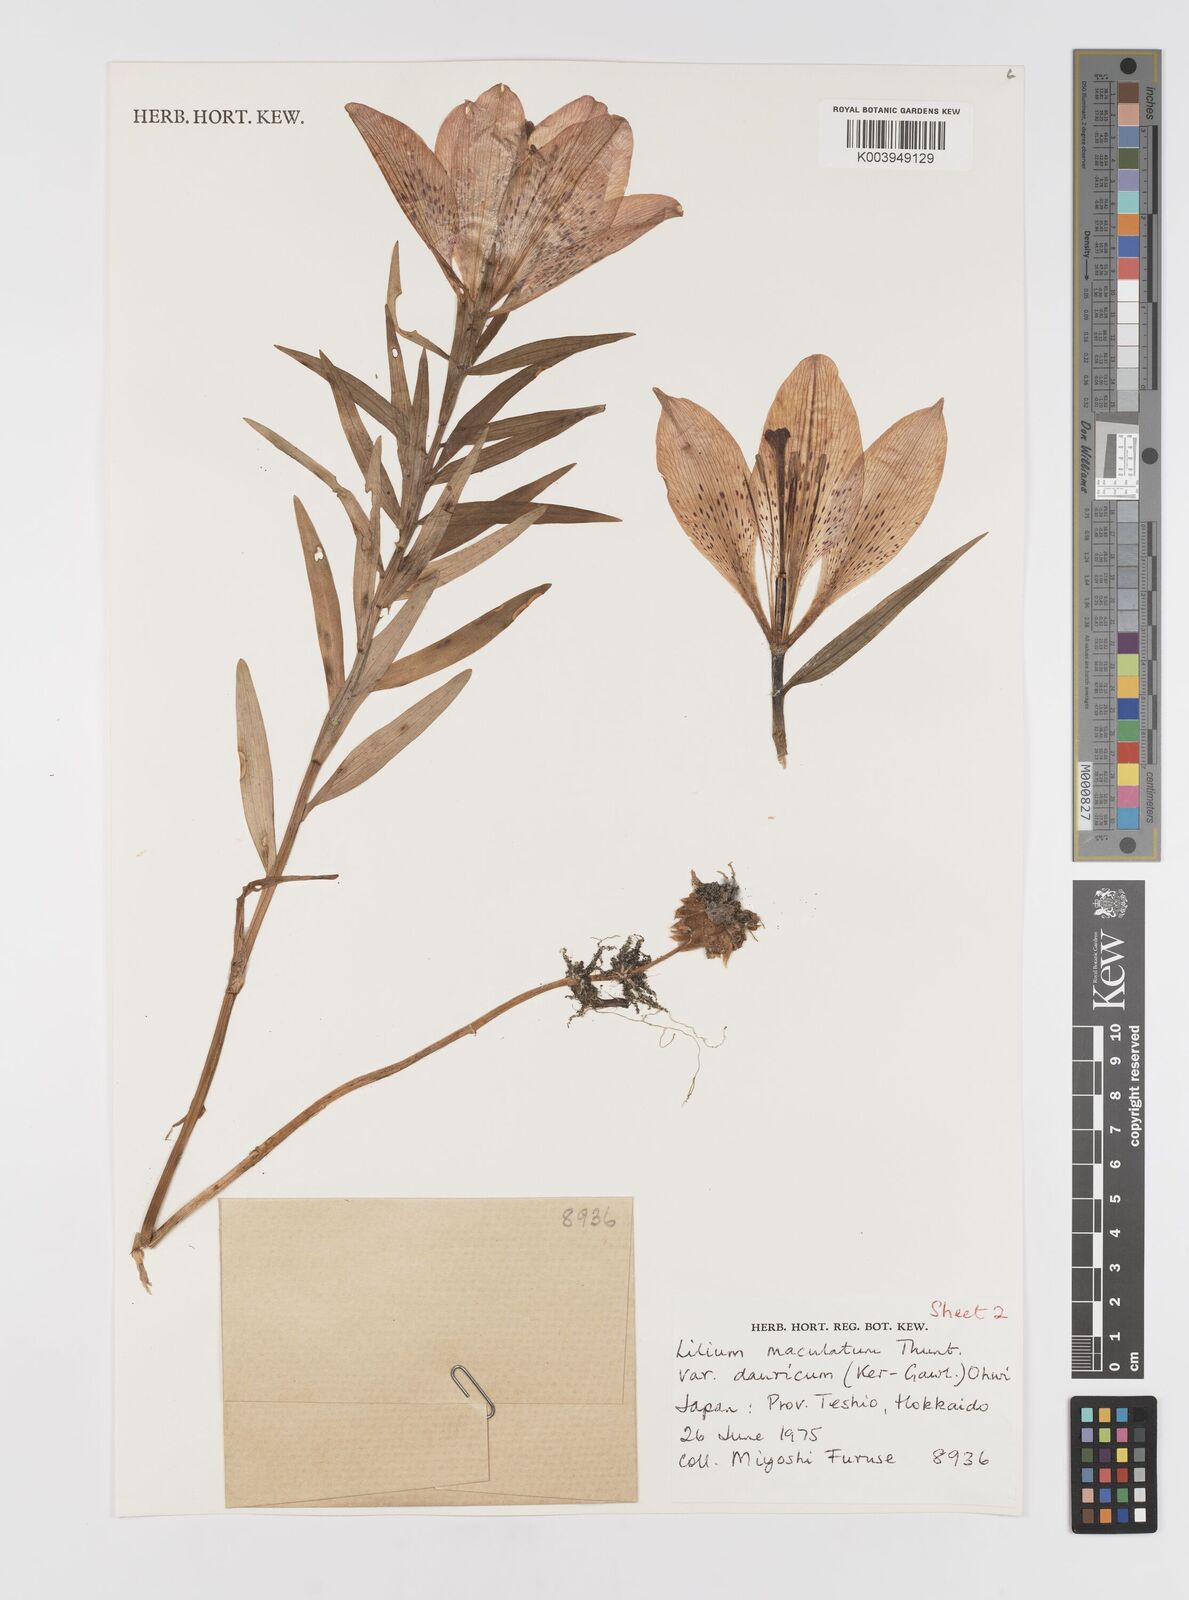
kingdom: Plantae
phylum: Tracheophyta
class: Liliopsida
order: Liliales
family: Liliaceae
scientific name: Liliaceae
